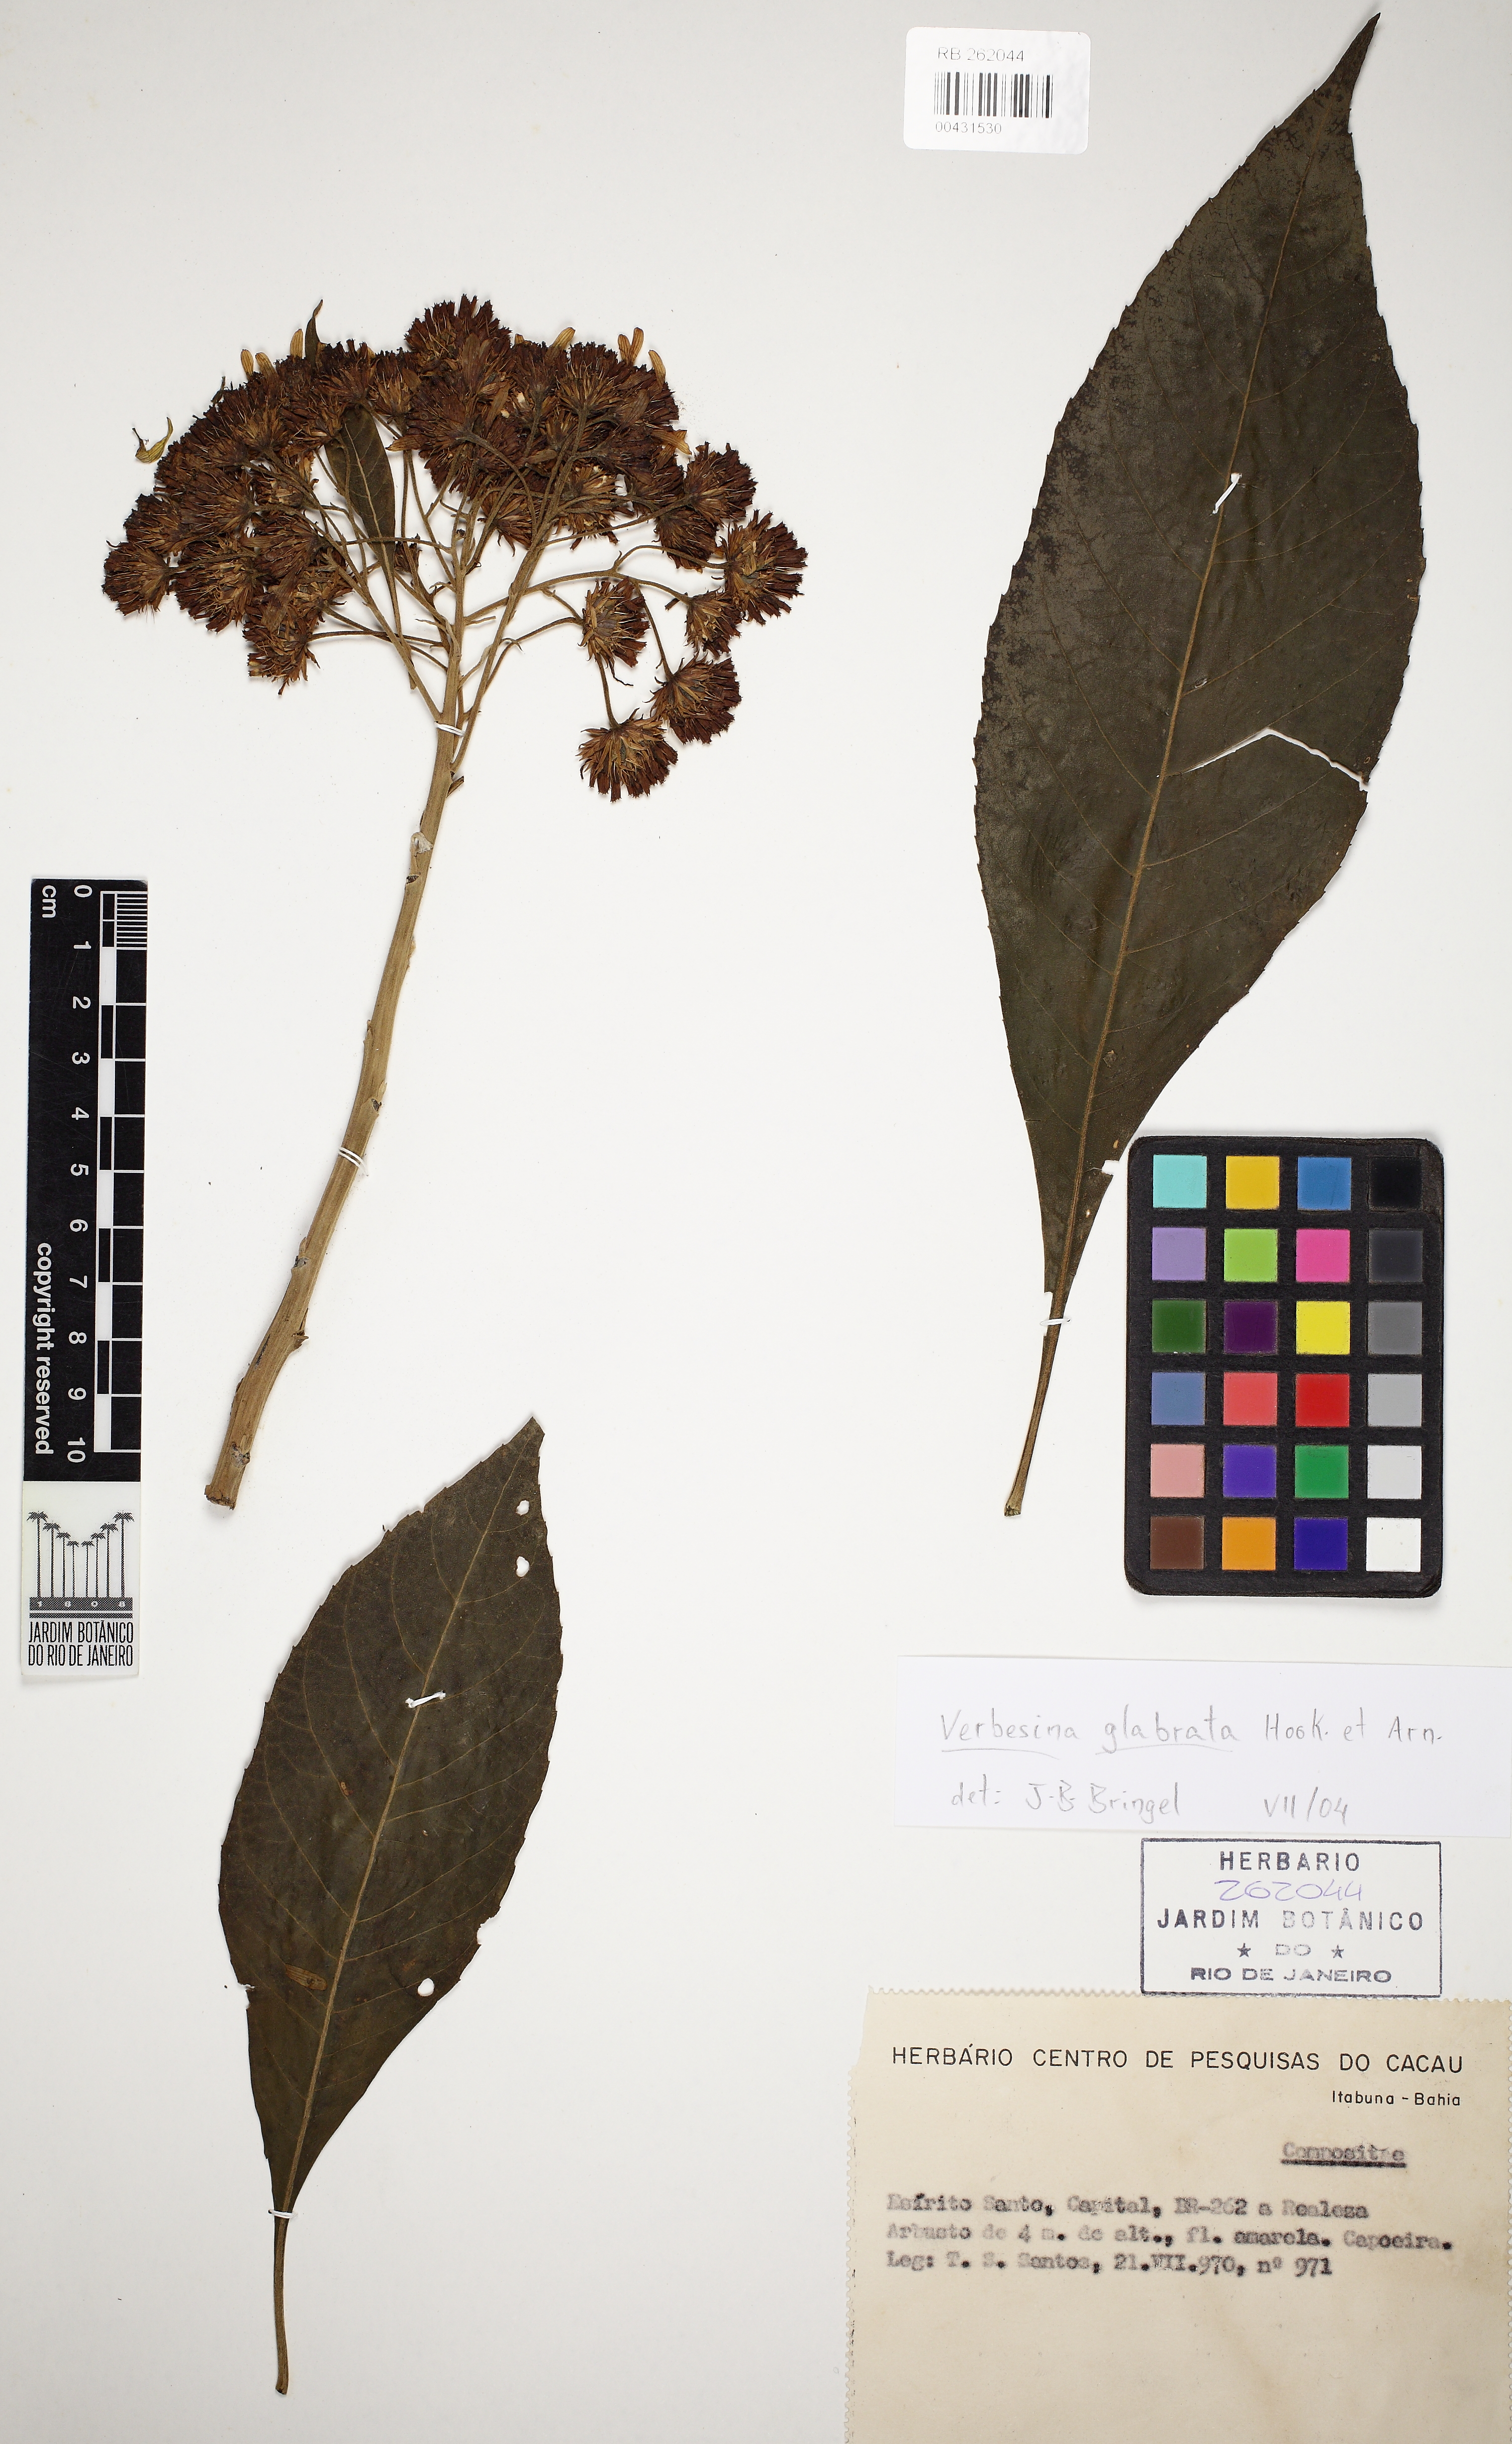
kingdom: Plantae
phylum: Tracheophyta
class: Magnoliopsida
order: Asterales
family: Asteraceae
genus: Verbesina
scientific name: Verbesina glabrata
